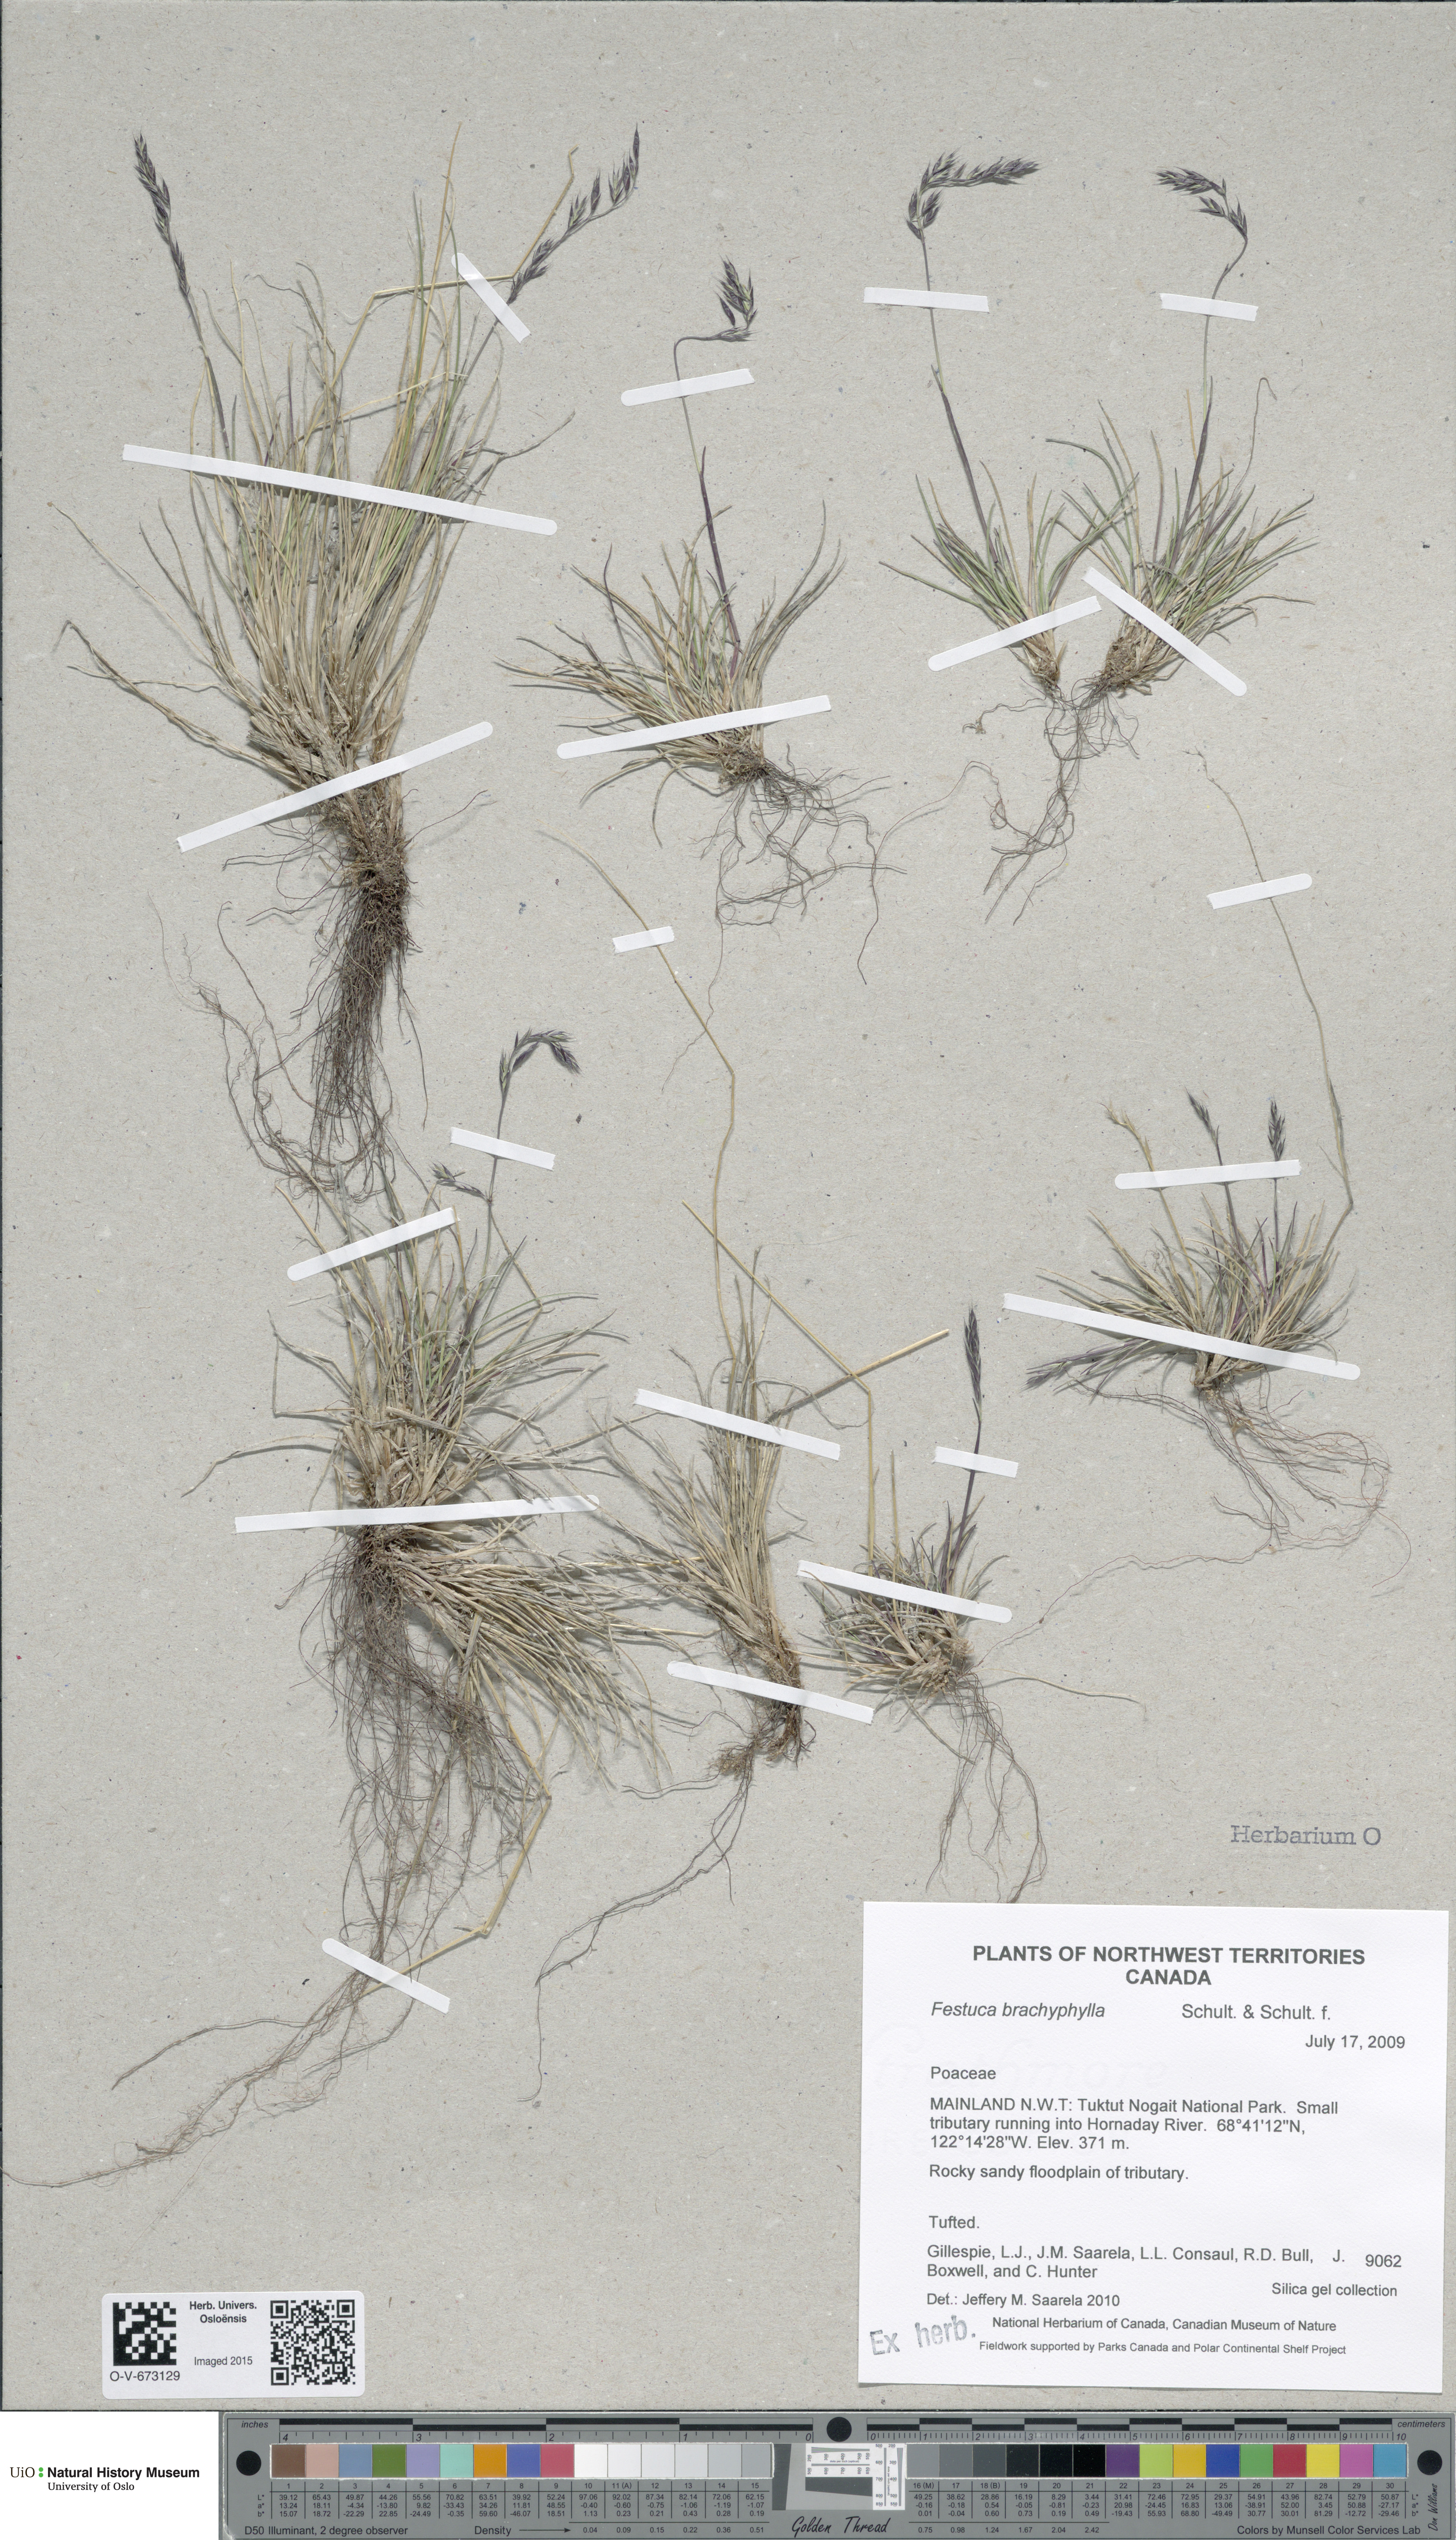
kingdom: Plantae
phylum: Tracheophyta
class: Liliopsida
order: Poales
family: Poaceae
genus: Festuca
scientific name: Festuca brachyphylla
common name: Alpine fescue
